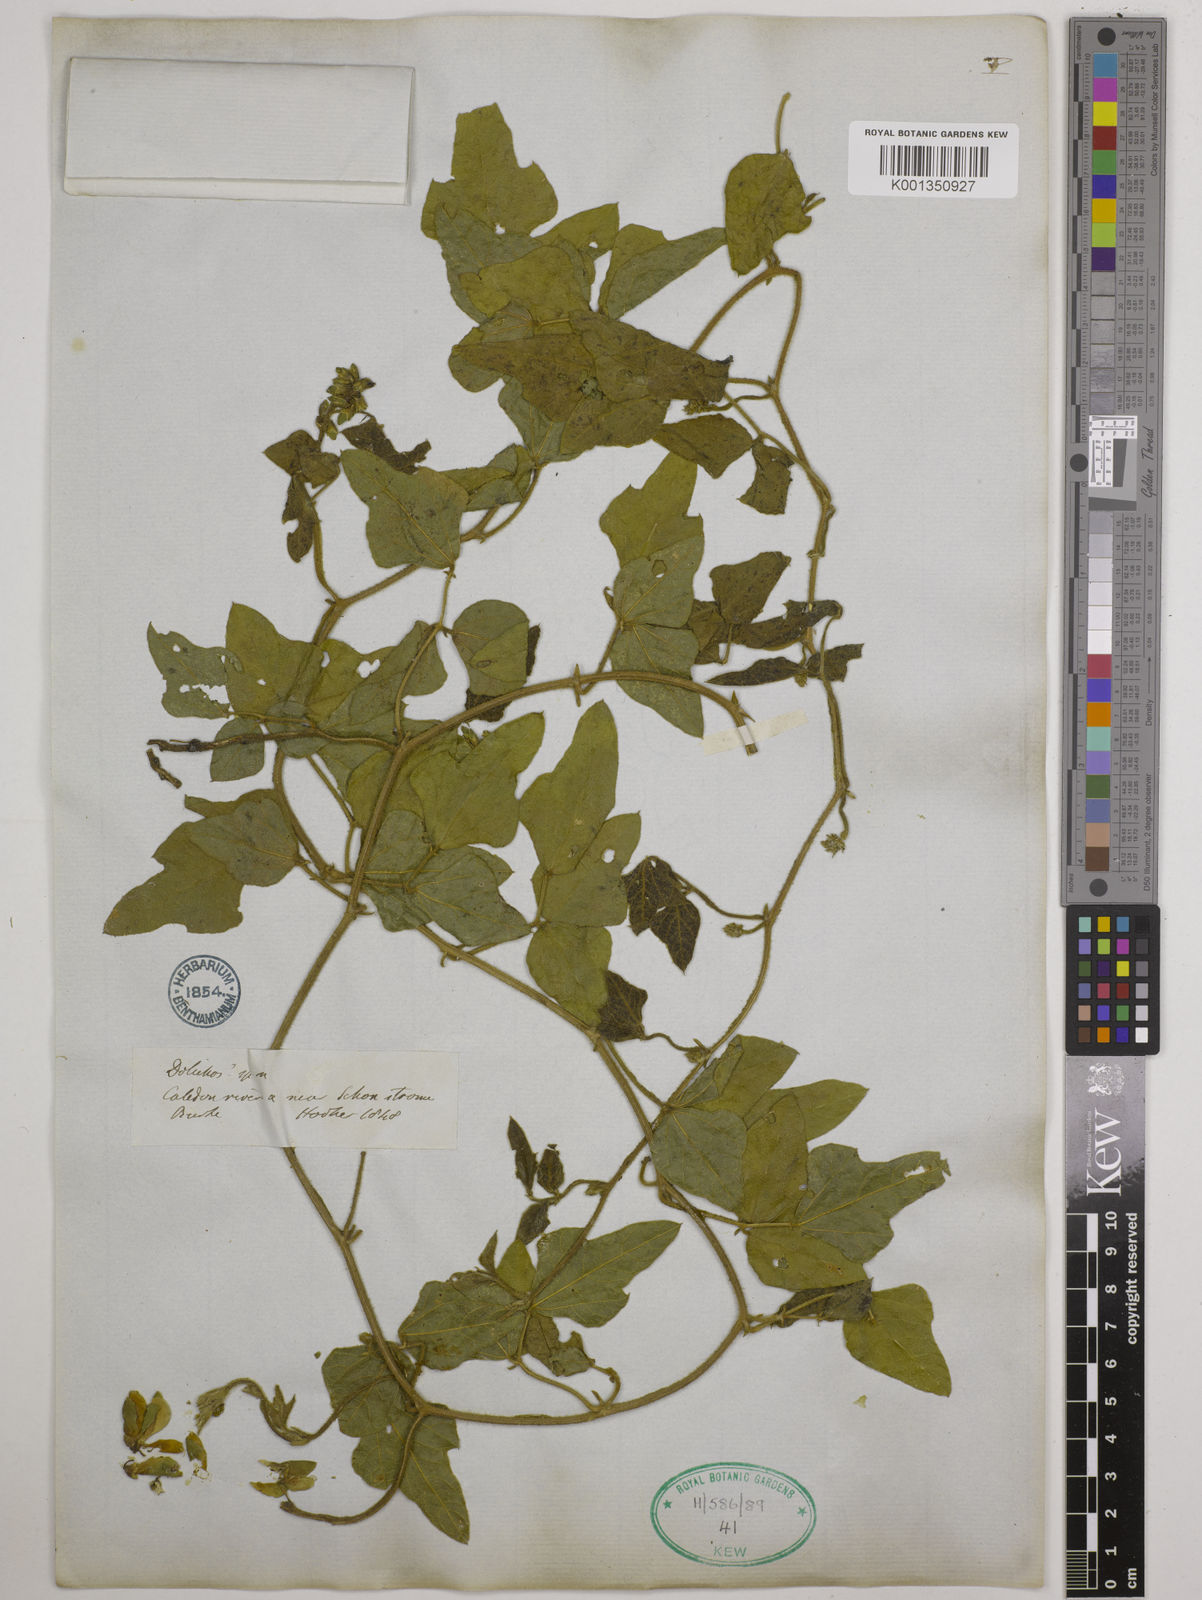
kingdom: Plantae
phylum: Tracheophyta
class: Magnoliopsida
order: Fabales
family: Fabaceae
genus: Dolichos
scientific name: Dolichos pratensis
